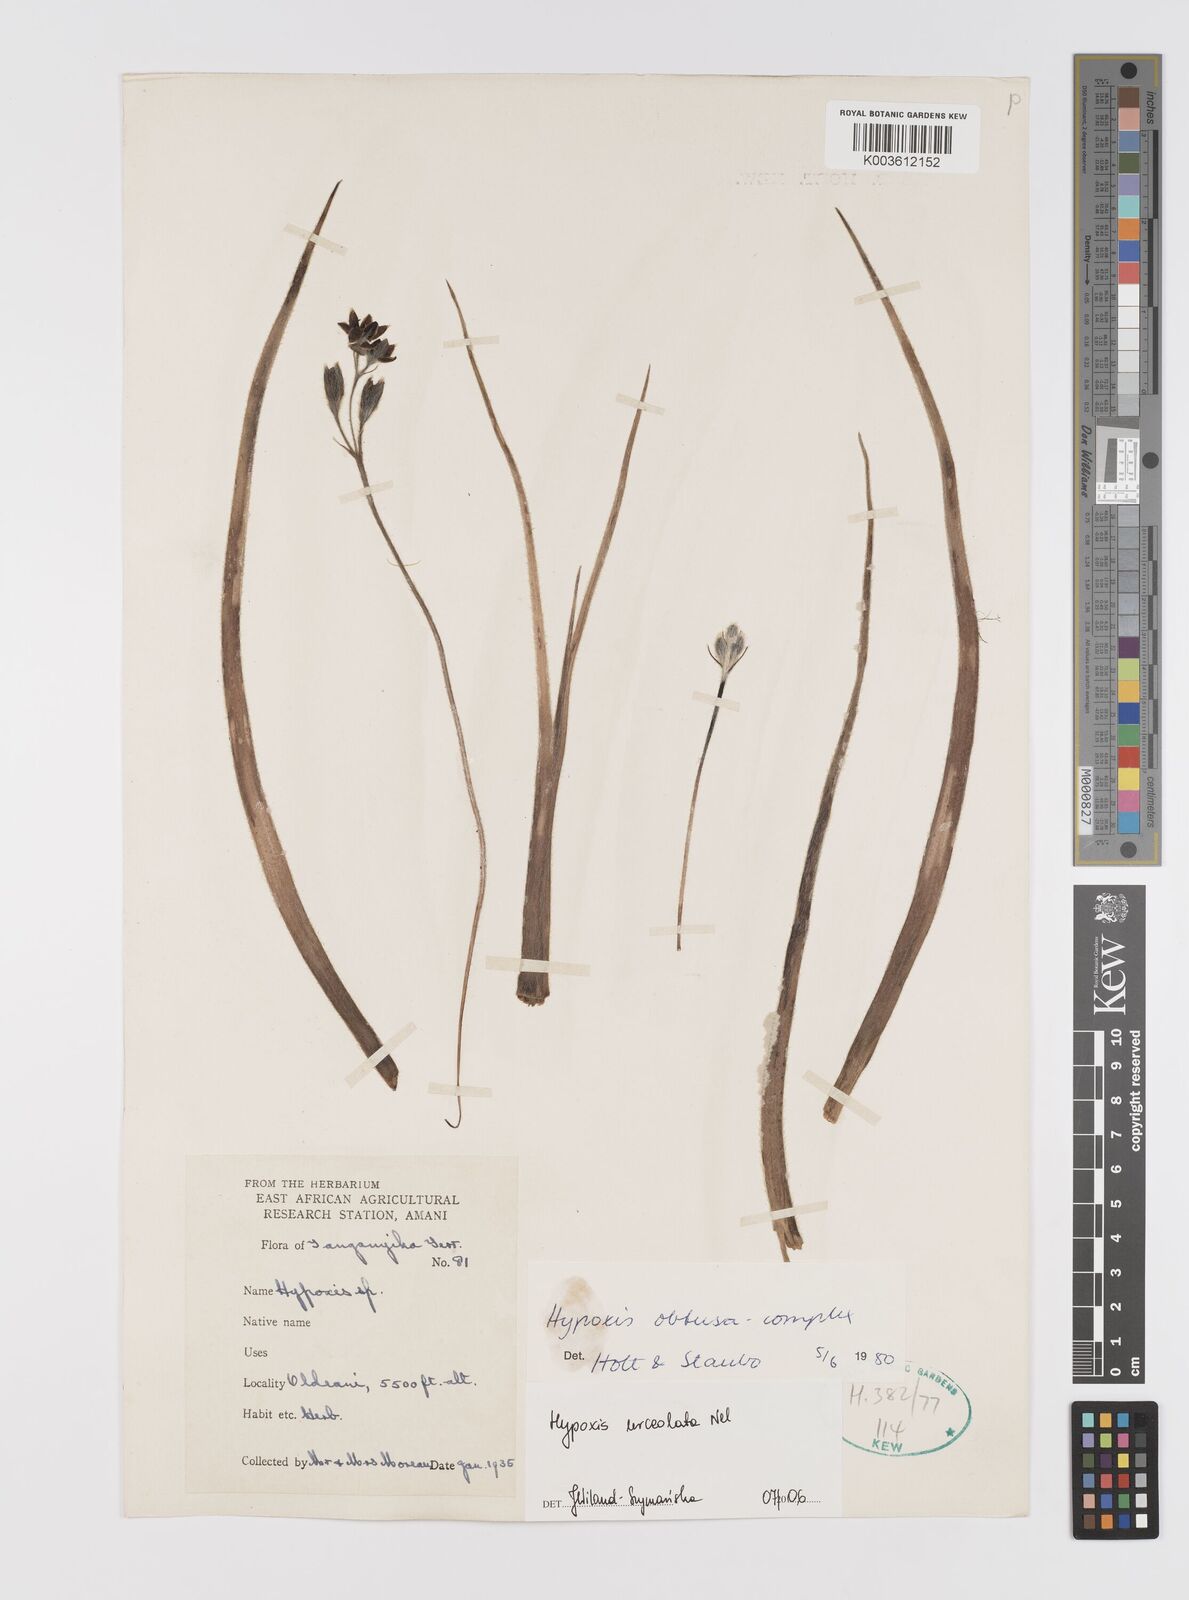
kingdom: Plantae
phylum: Tracheophyta
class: Liliopsida
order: Asparagales
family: Hypoxidaceae
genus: Hypoxis
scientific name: Hypoxis urceolata
